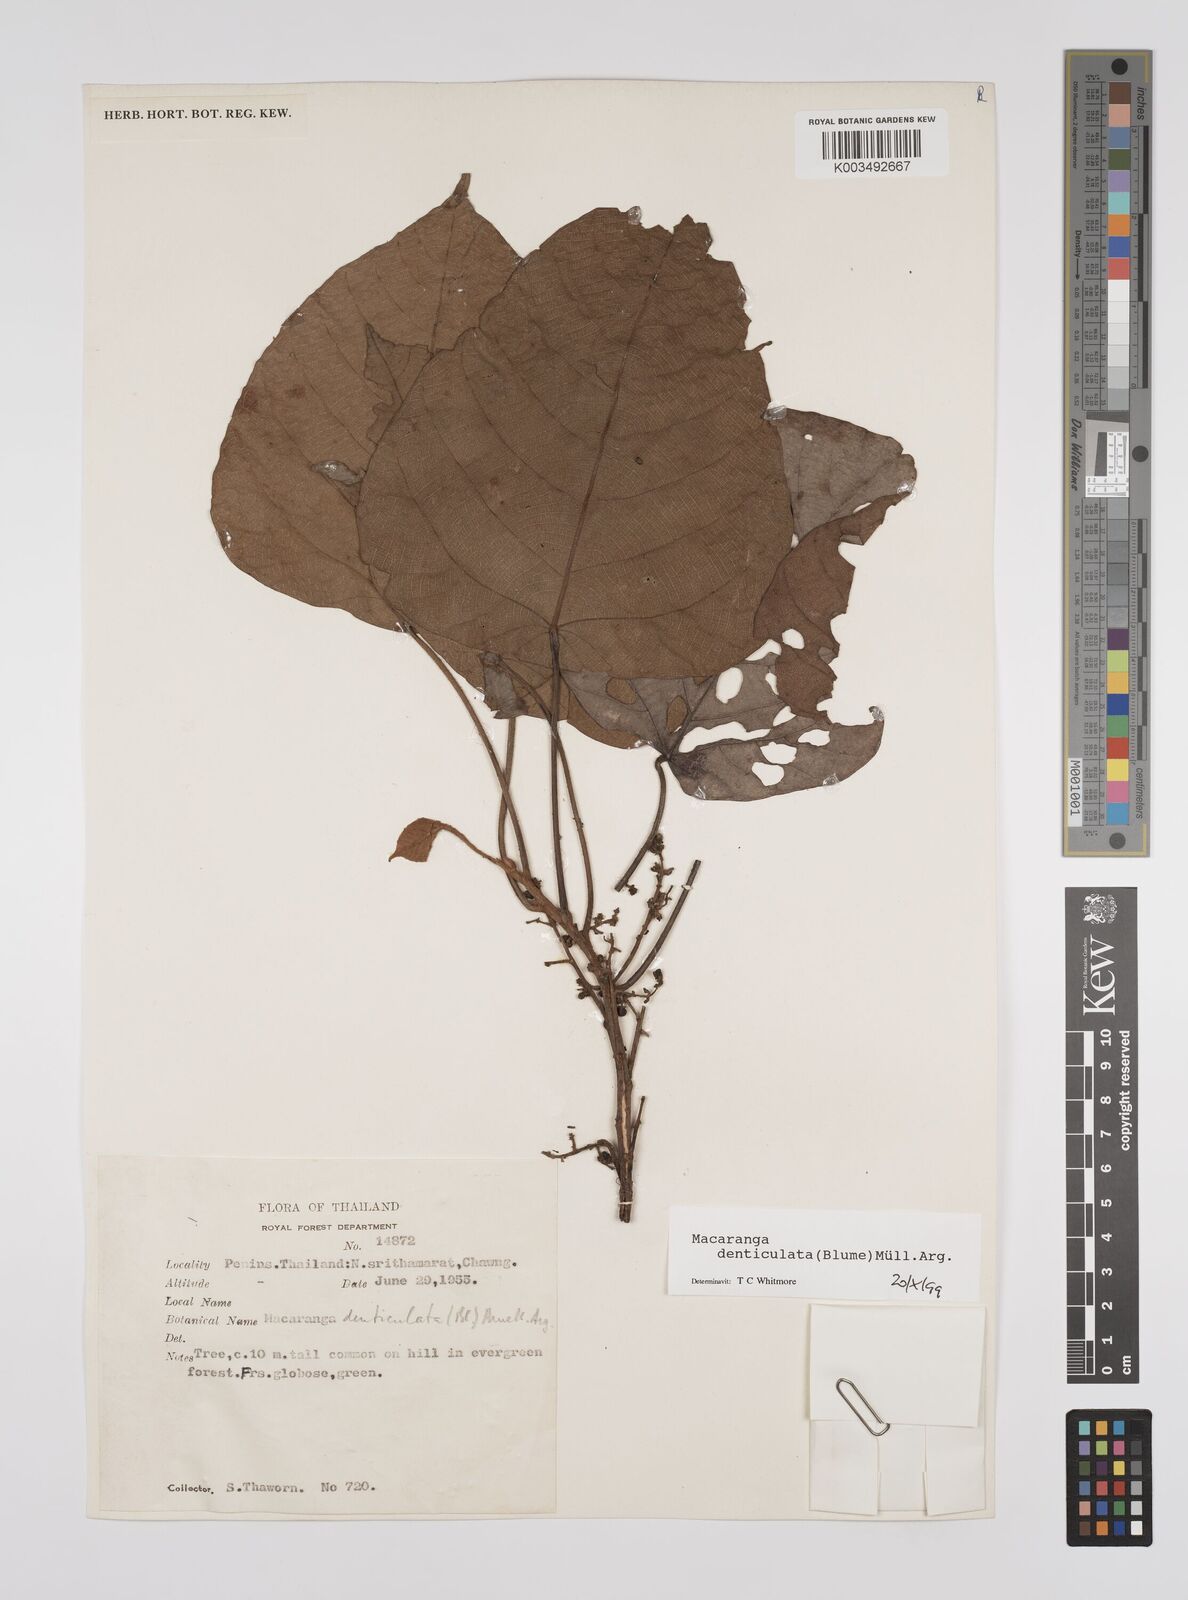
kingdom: Plantae
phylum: Tracheophyta
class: Magnoliopsida
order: Malpighiales
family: Euphorbiaceae
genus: Macaranga
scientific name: Macaranga denticulata
